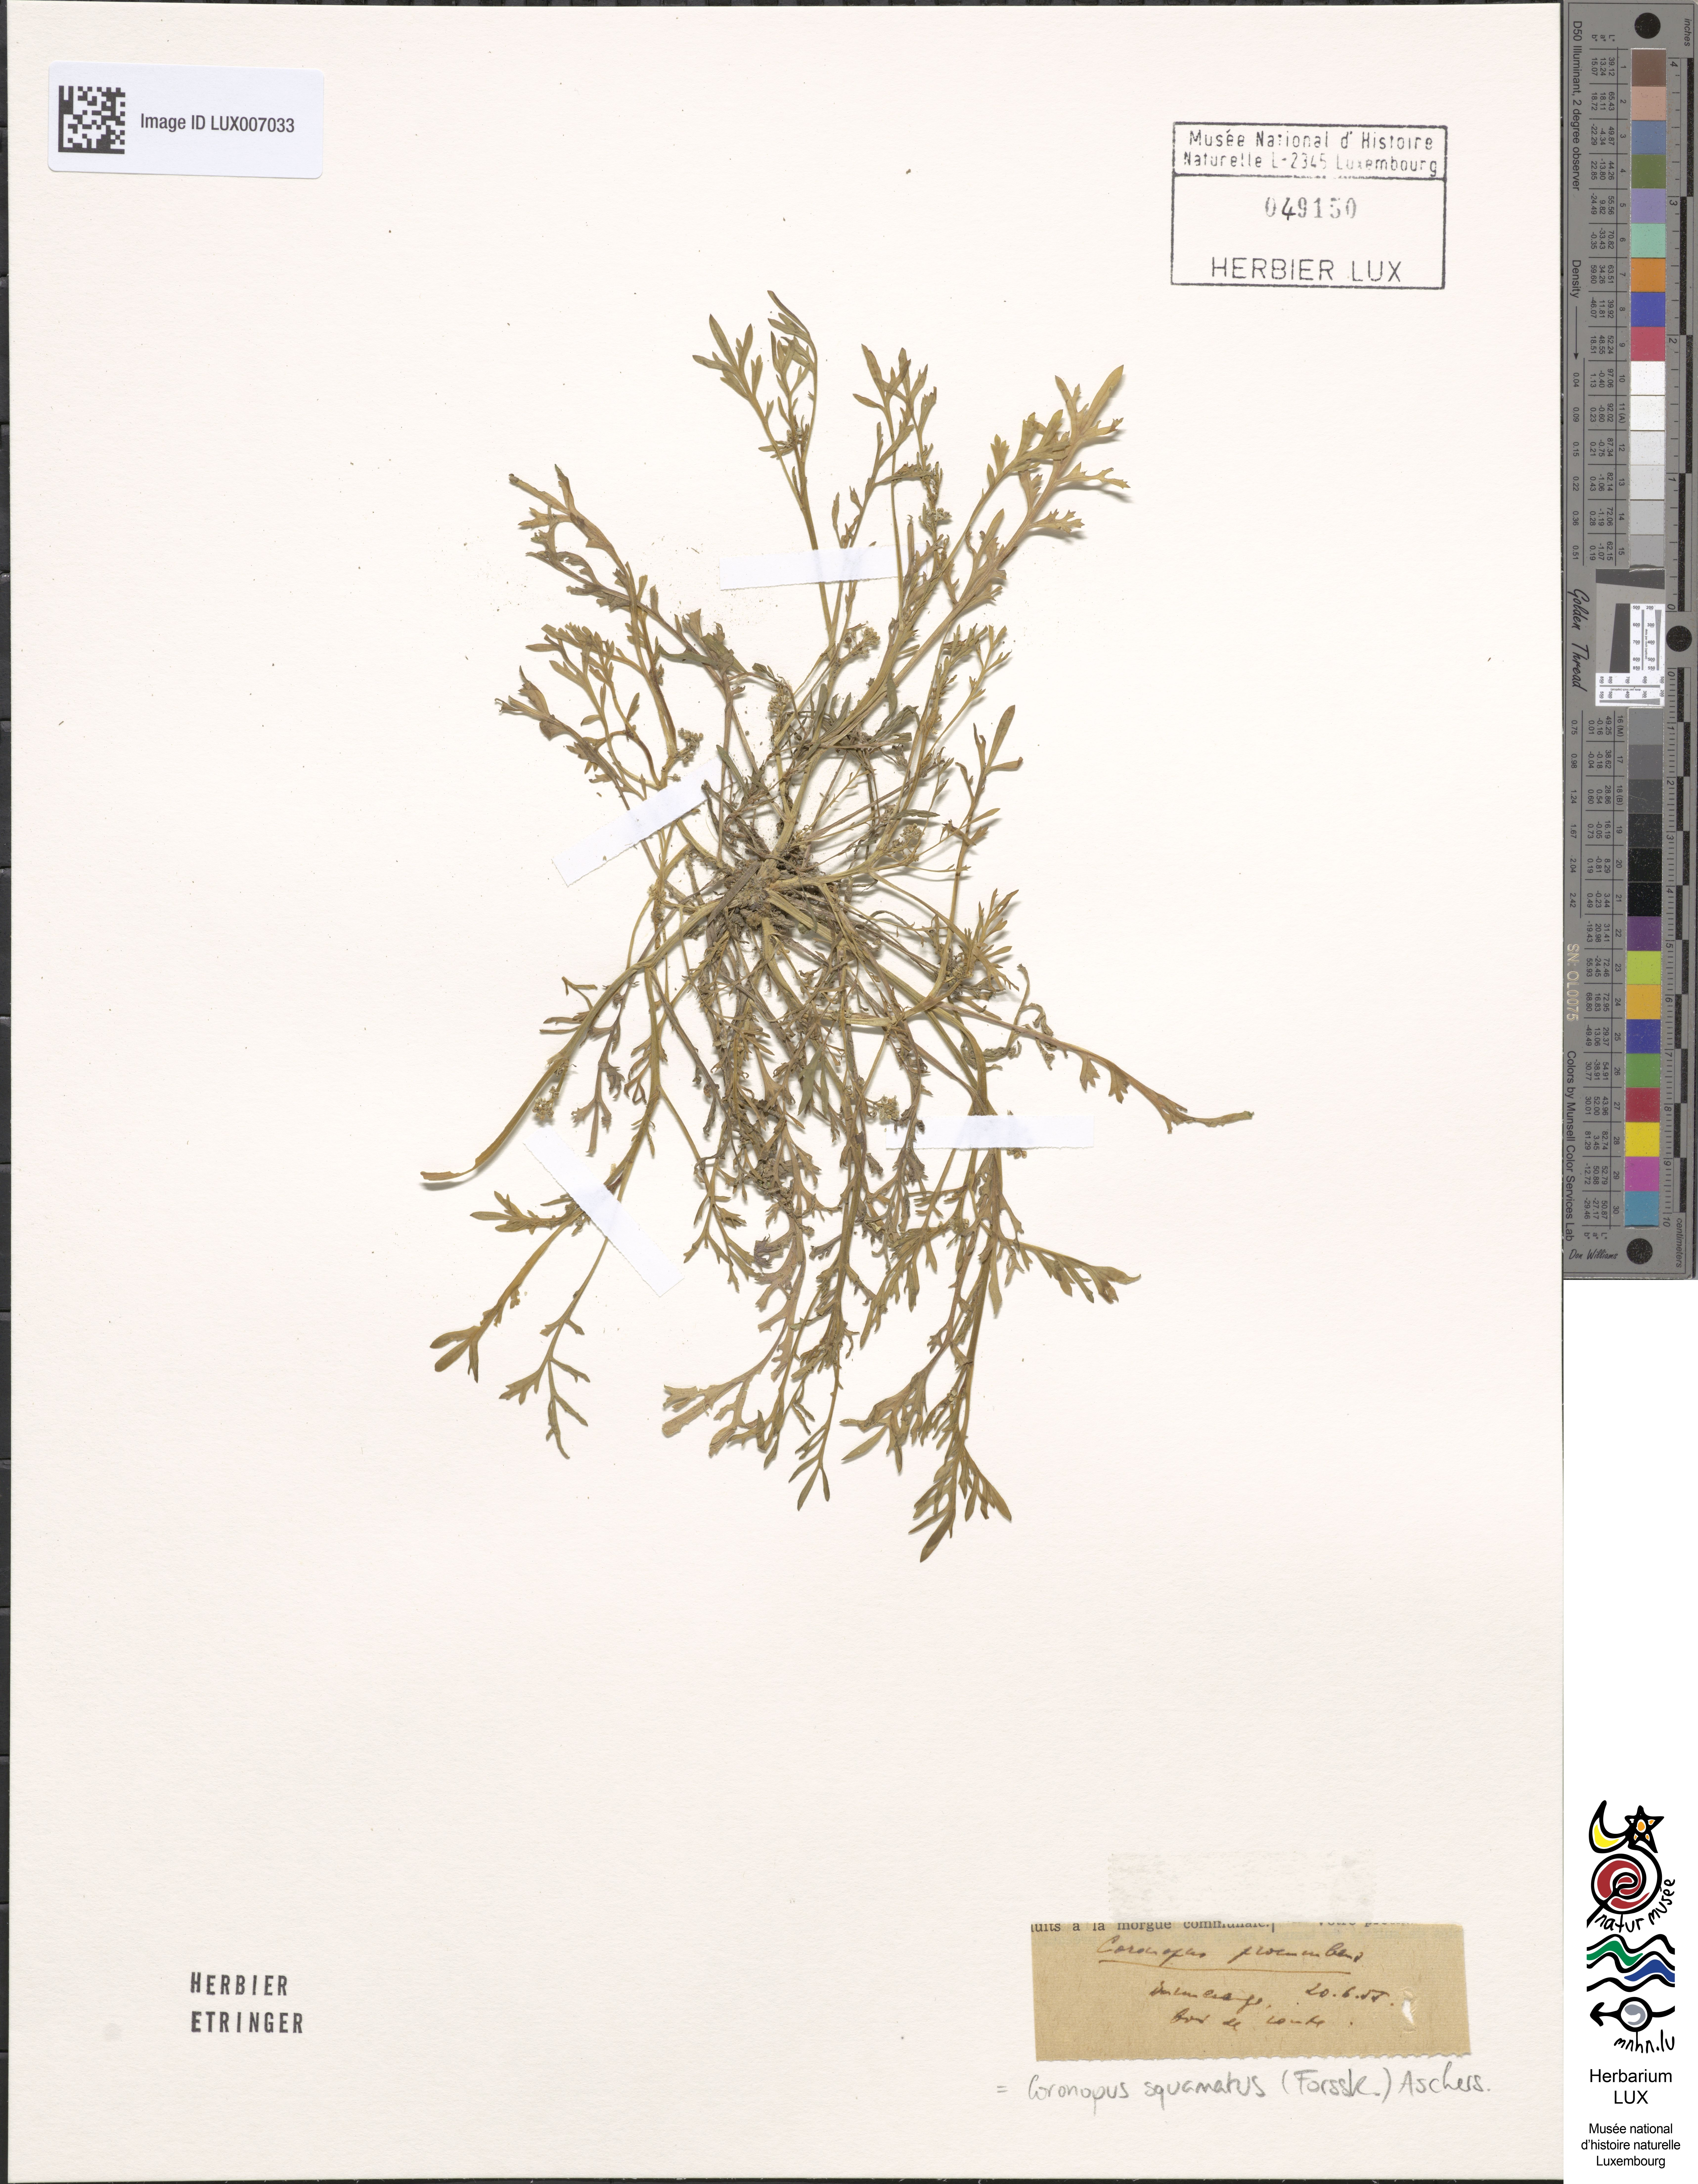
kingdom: Plantae
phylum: Tracheophyta
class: Magnoliopsida
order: Brassicales
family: Brassicaceae
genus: Lepidium
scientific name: Lepidium coronopus
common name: Greater swinecress
